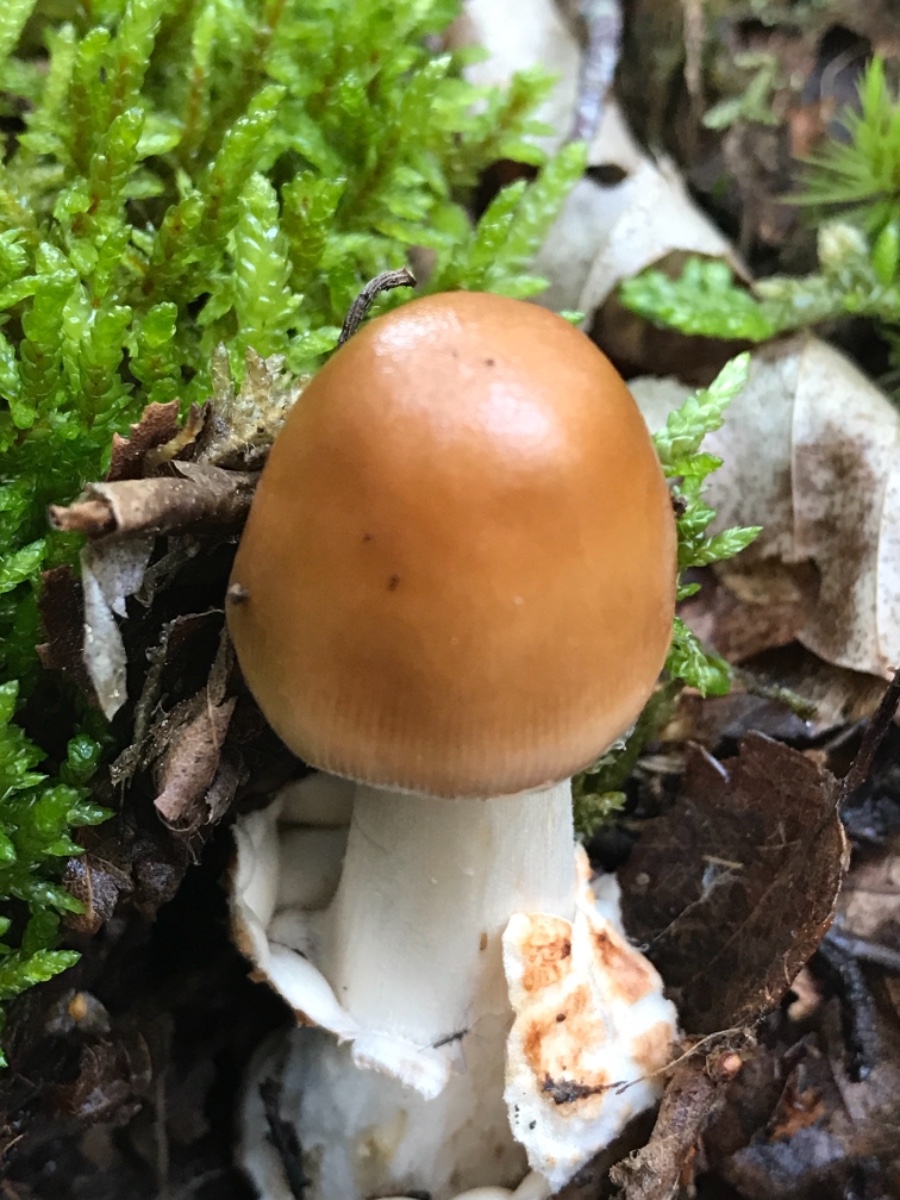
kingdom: Fungi
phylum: Basidiomycota
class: Agaricomycetes
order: Agaricales
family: Amanitaceae
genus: Amanita
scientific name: Amanita fulva
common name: brun kam-fluesvamp
